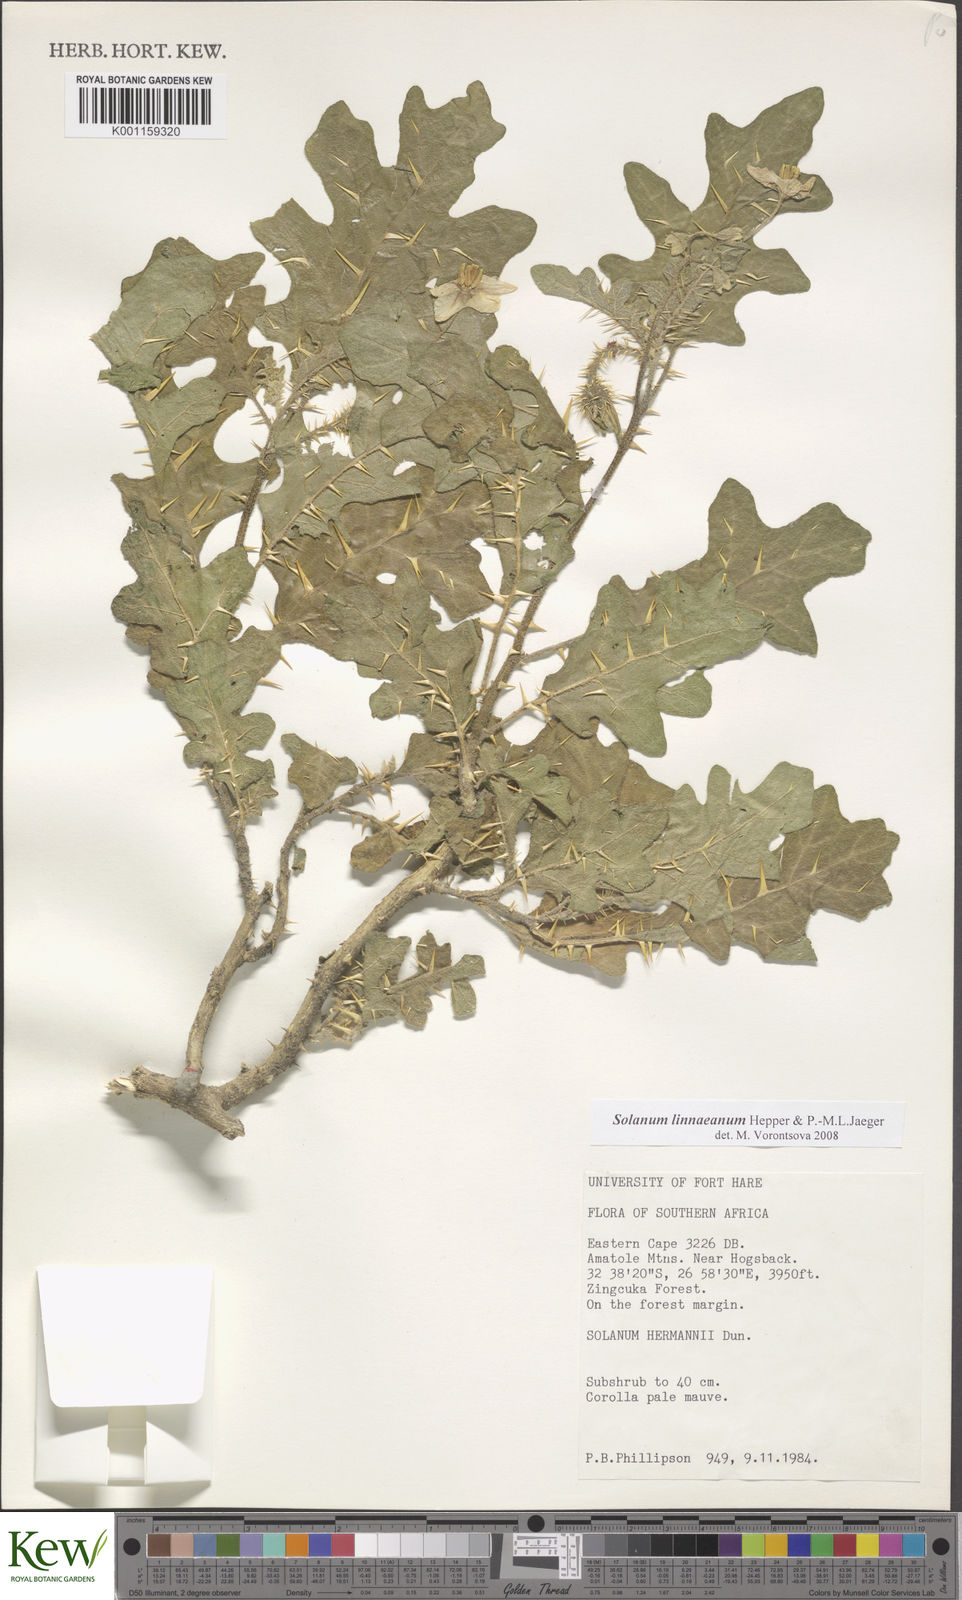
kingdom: Plantae
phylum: Tracheophyta
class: Magnoliopsida
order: Solanales
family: Solanaceae
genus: Solanum
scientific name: Solanum linnaeanum
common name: Nightshade
